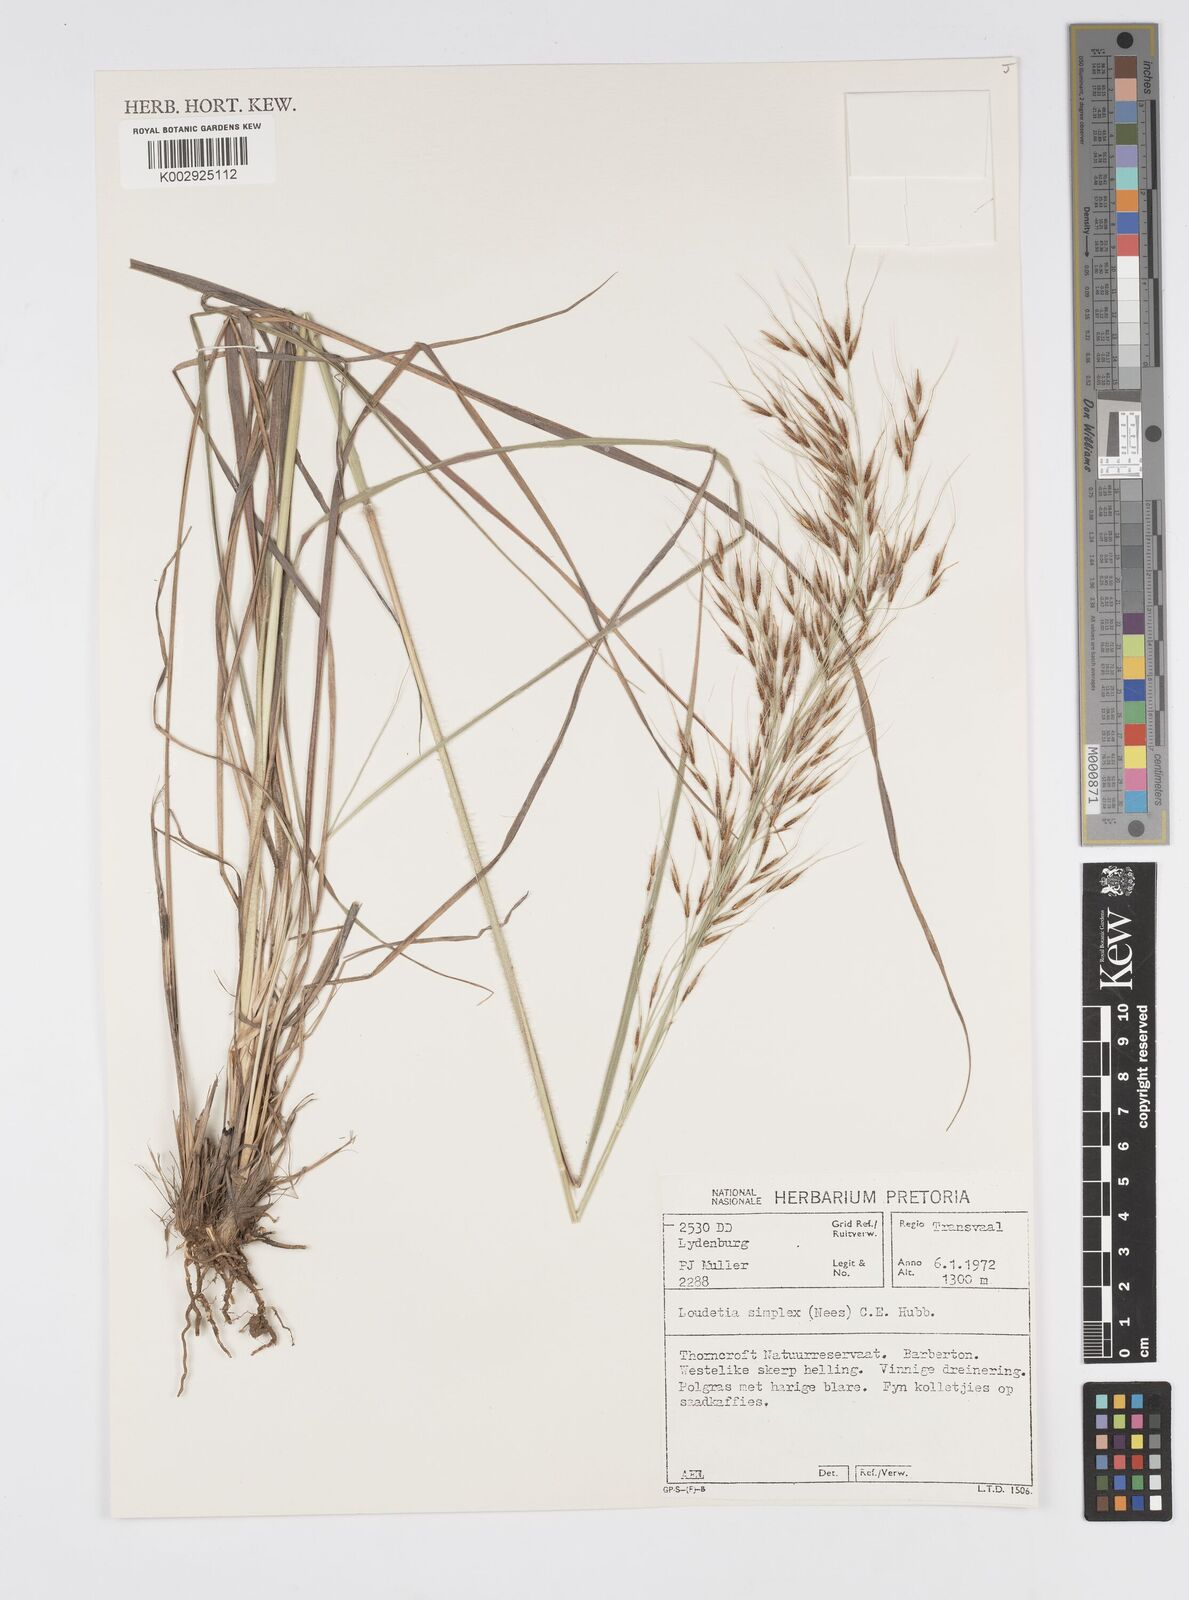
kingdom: Plantae
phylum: Tracheophyta
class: Liliopsida
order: Poales
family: Poaceae
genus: Loudetia
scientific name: Loudetia simplex
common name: Common russet grass
